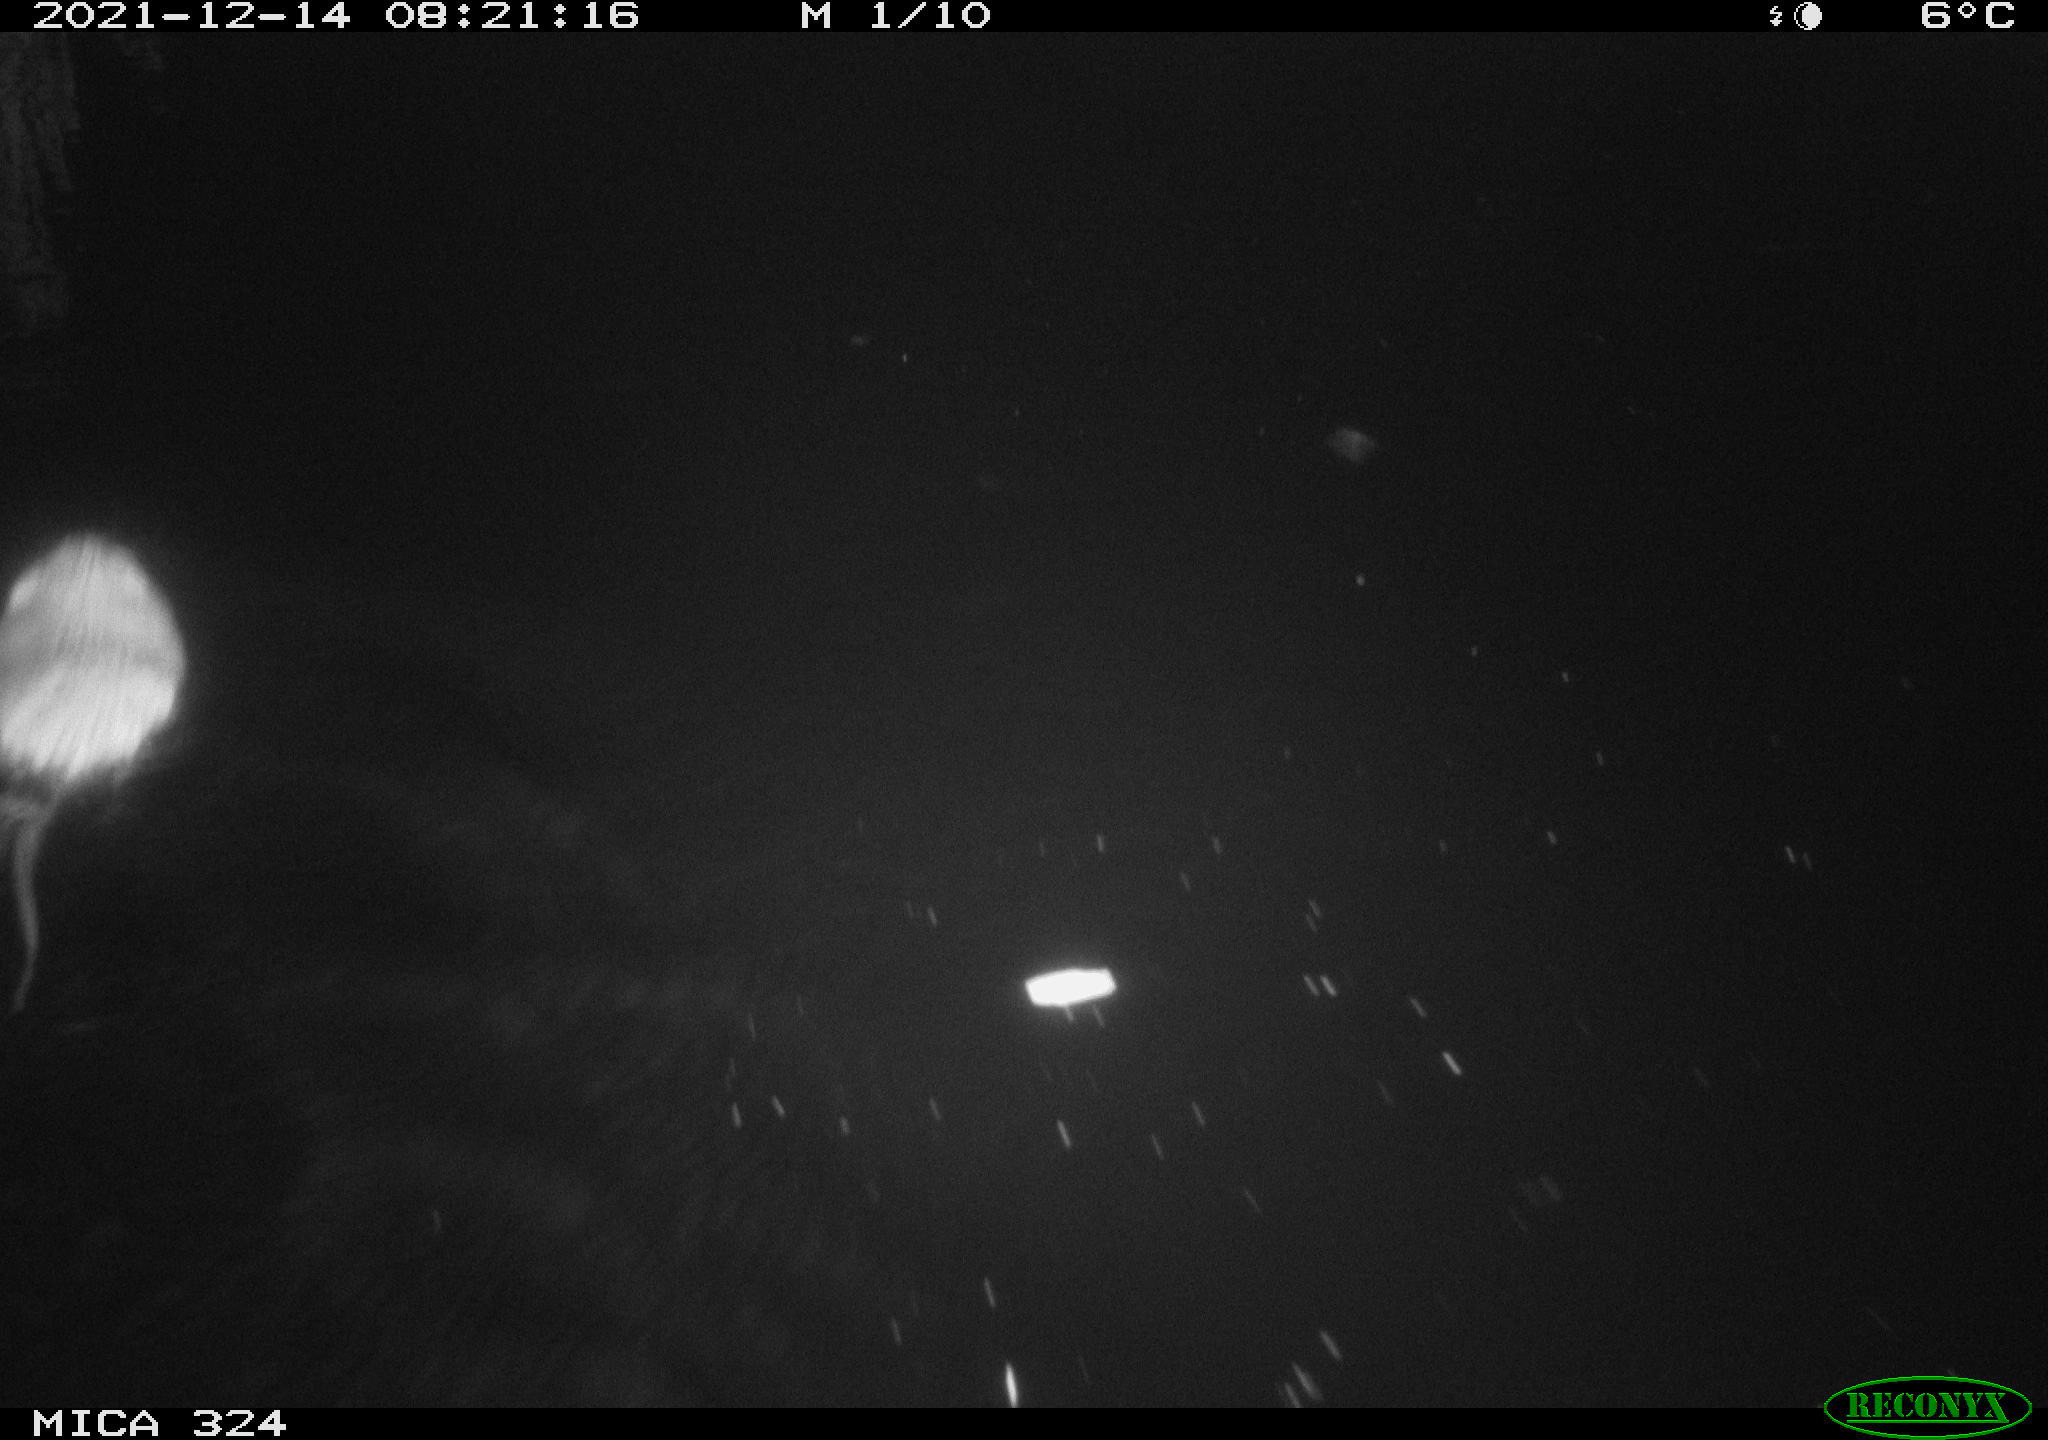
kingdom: Animalia
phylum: Chordata
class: Mammalia
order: Rodentia
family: Cricetidae
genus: Ondatra
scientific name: Ondatra zibethicus
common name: Muskrat
